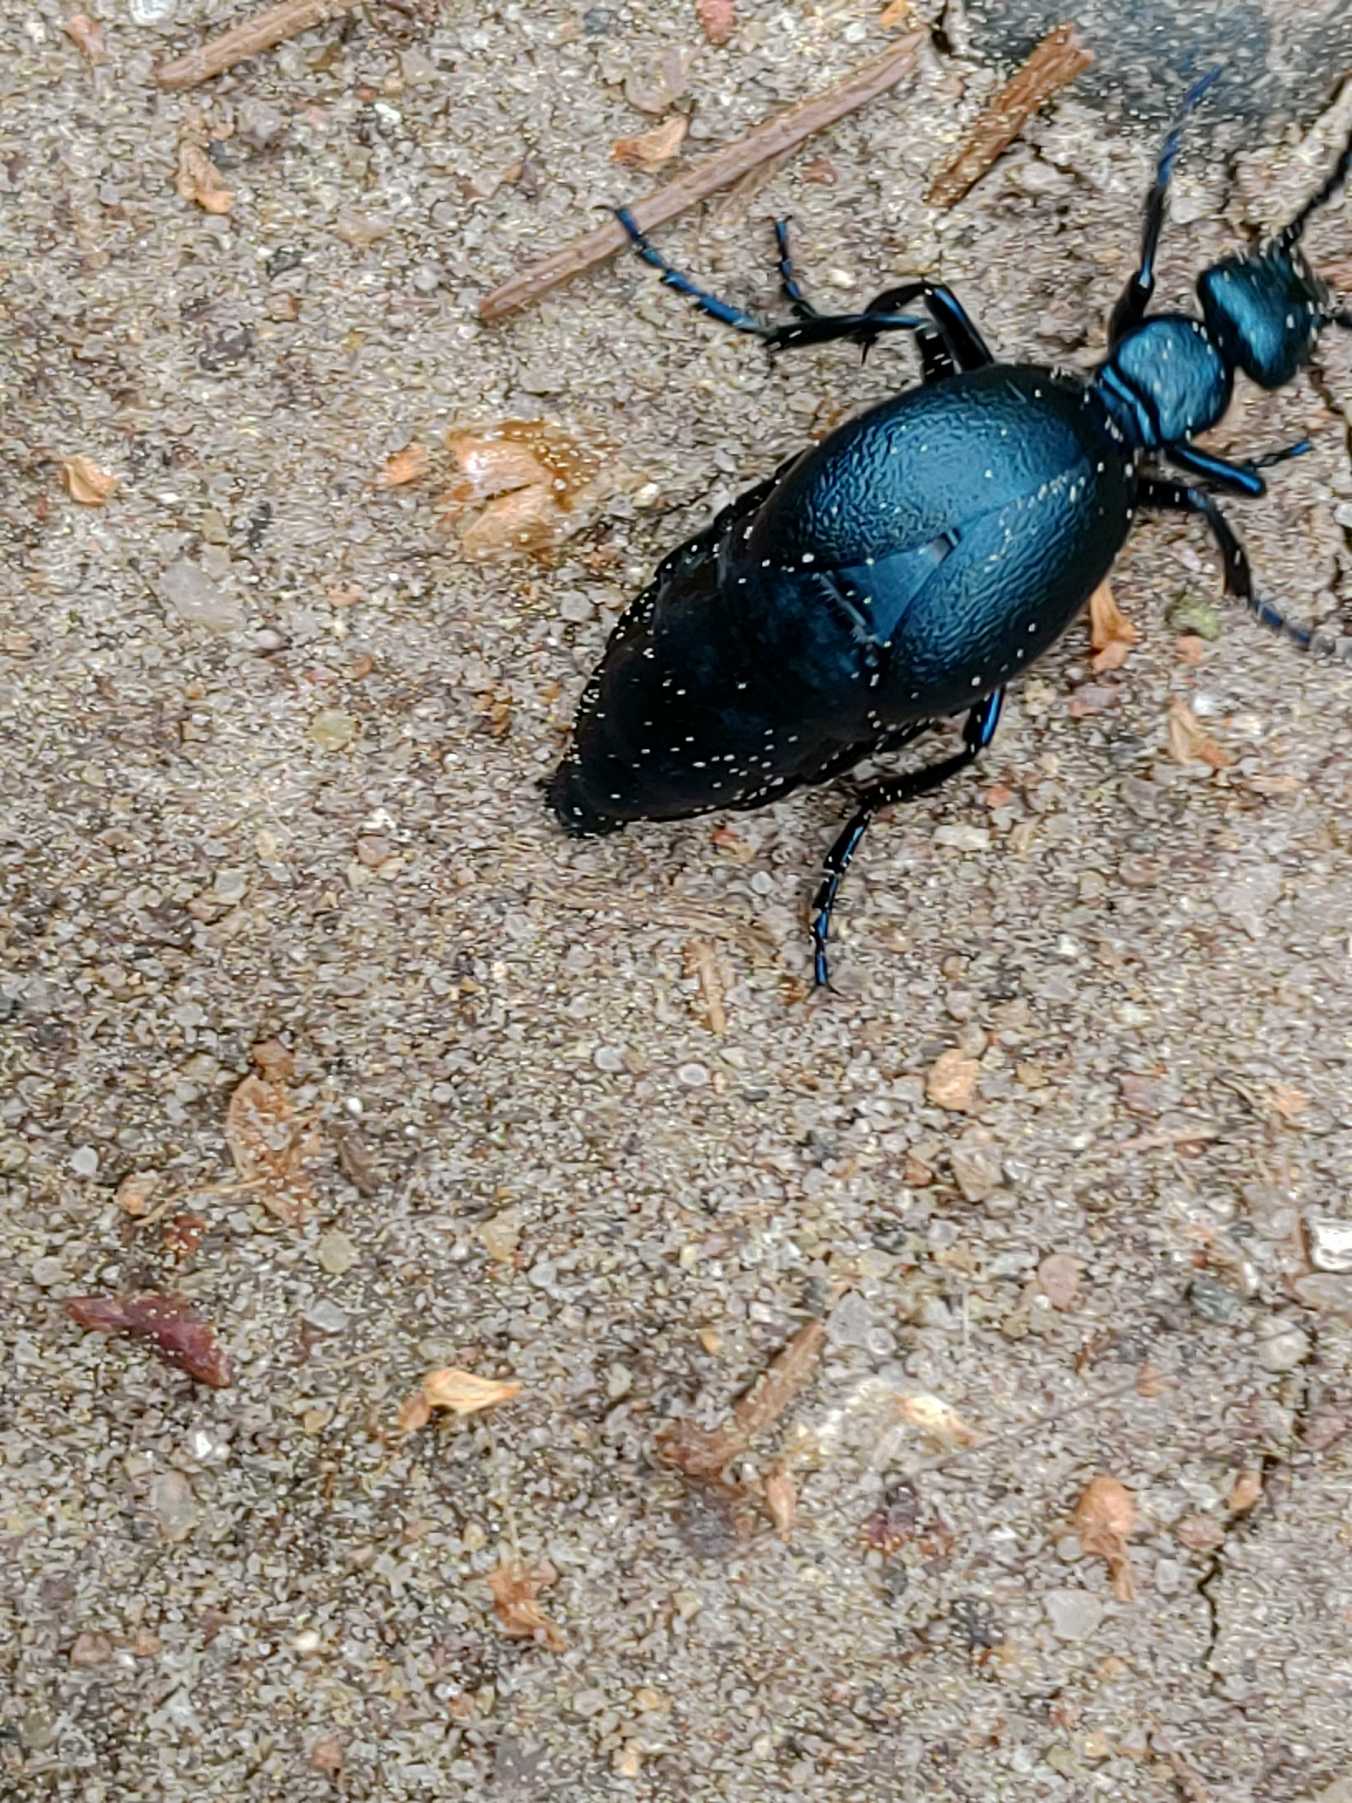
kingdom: Animalia
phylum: Arthropoda
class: Insecta
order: Coleoptera
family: Meloidae
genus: Meloe
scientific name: Meloe violaceus
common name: Blå oliebille
